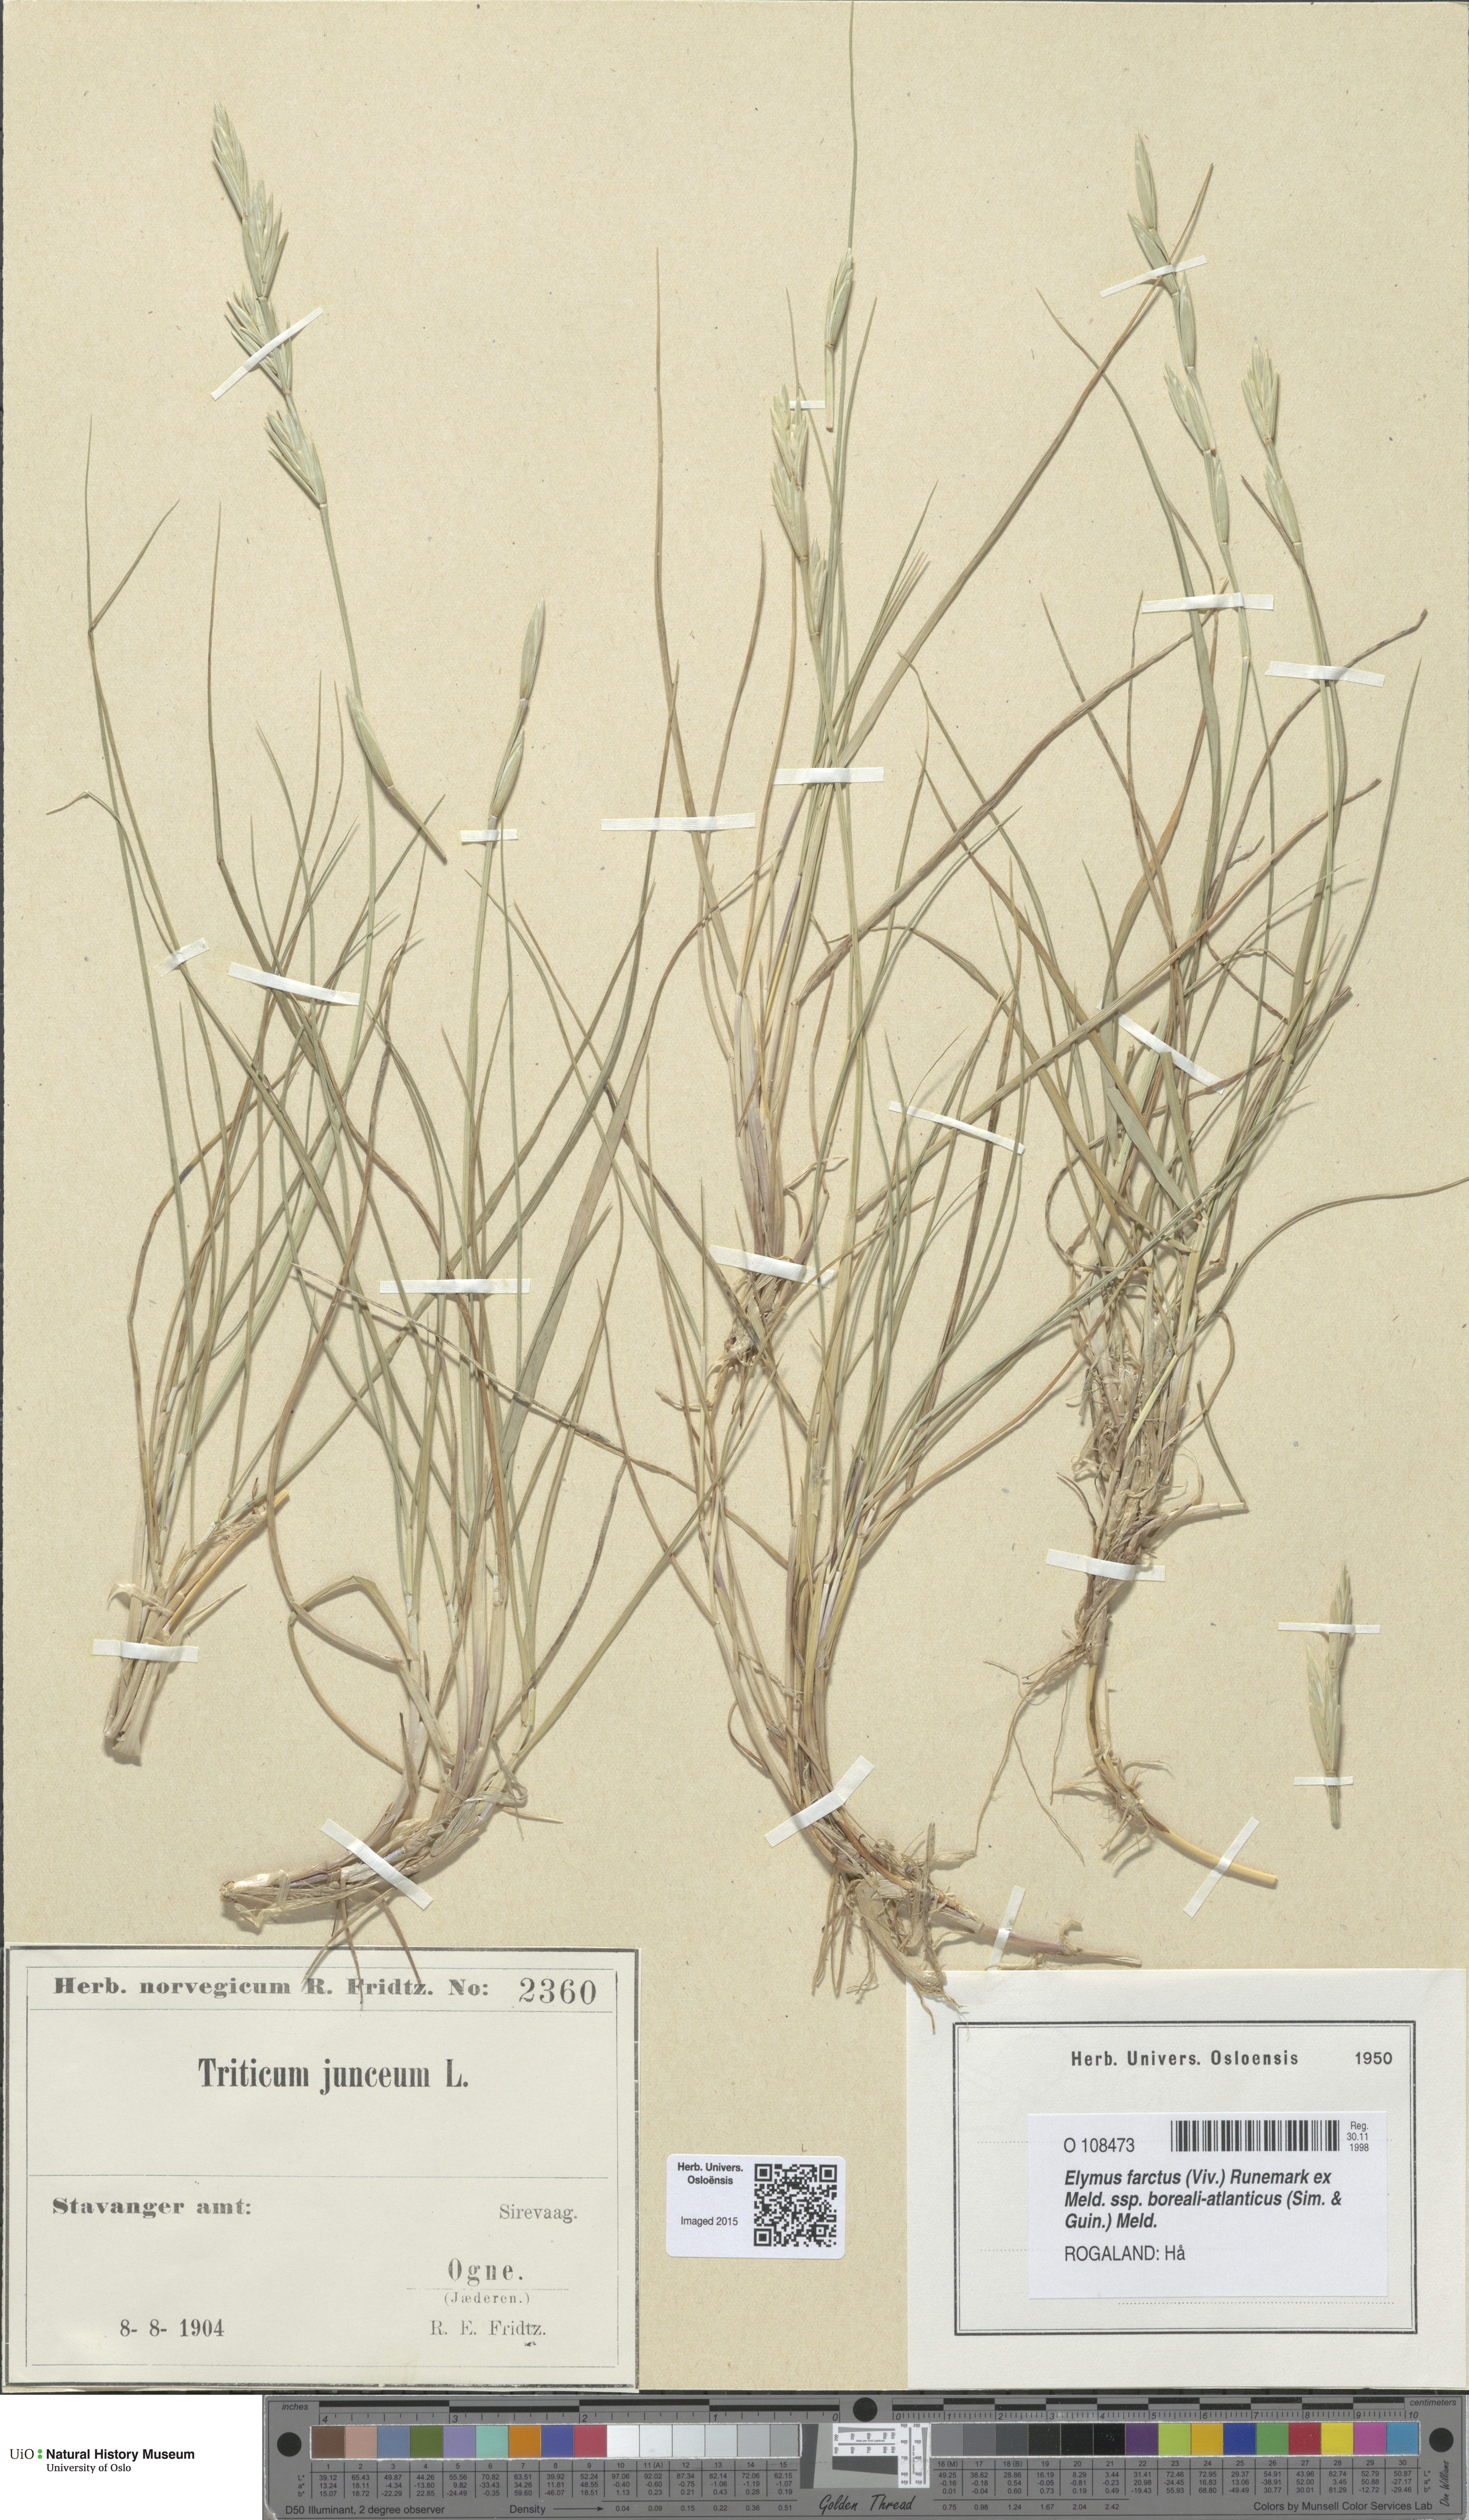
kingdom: Plantae
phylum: Tracheophyta
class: Liliopsida
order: Poales
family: Poaceae
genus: Thinopyrum
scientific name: Thinopyrum junceiforme
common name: Sea couch
